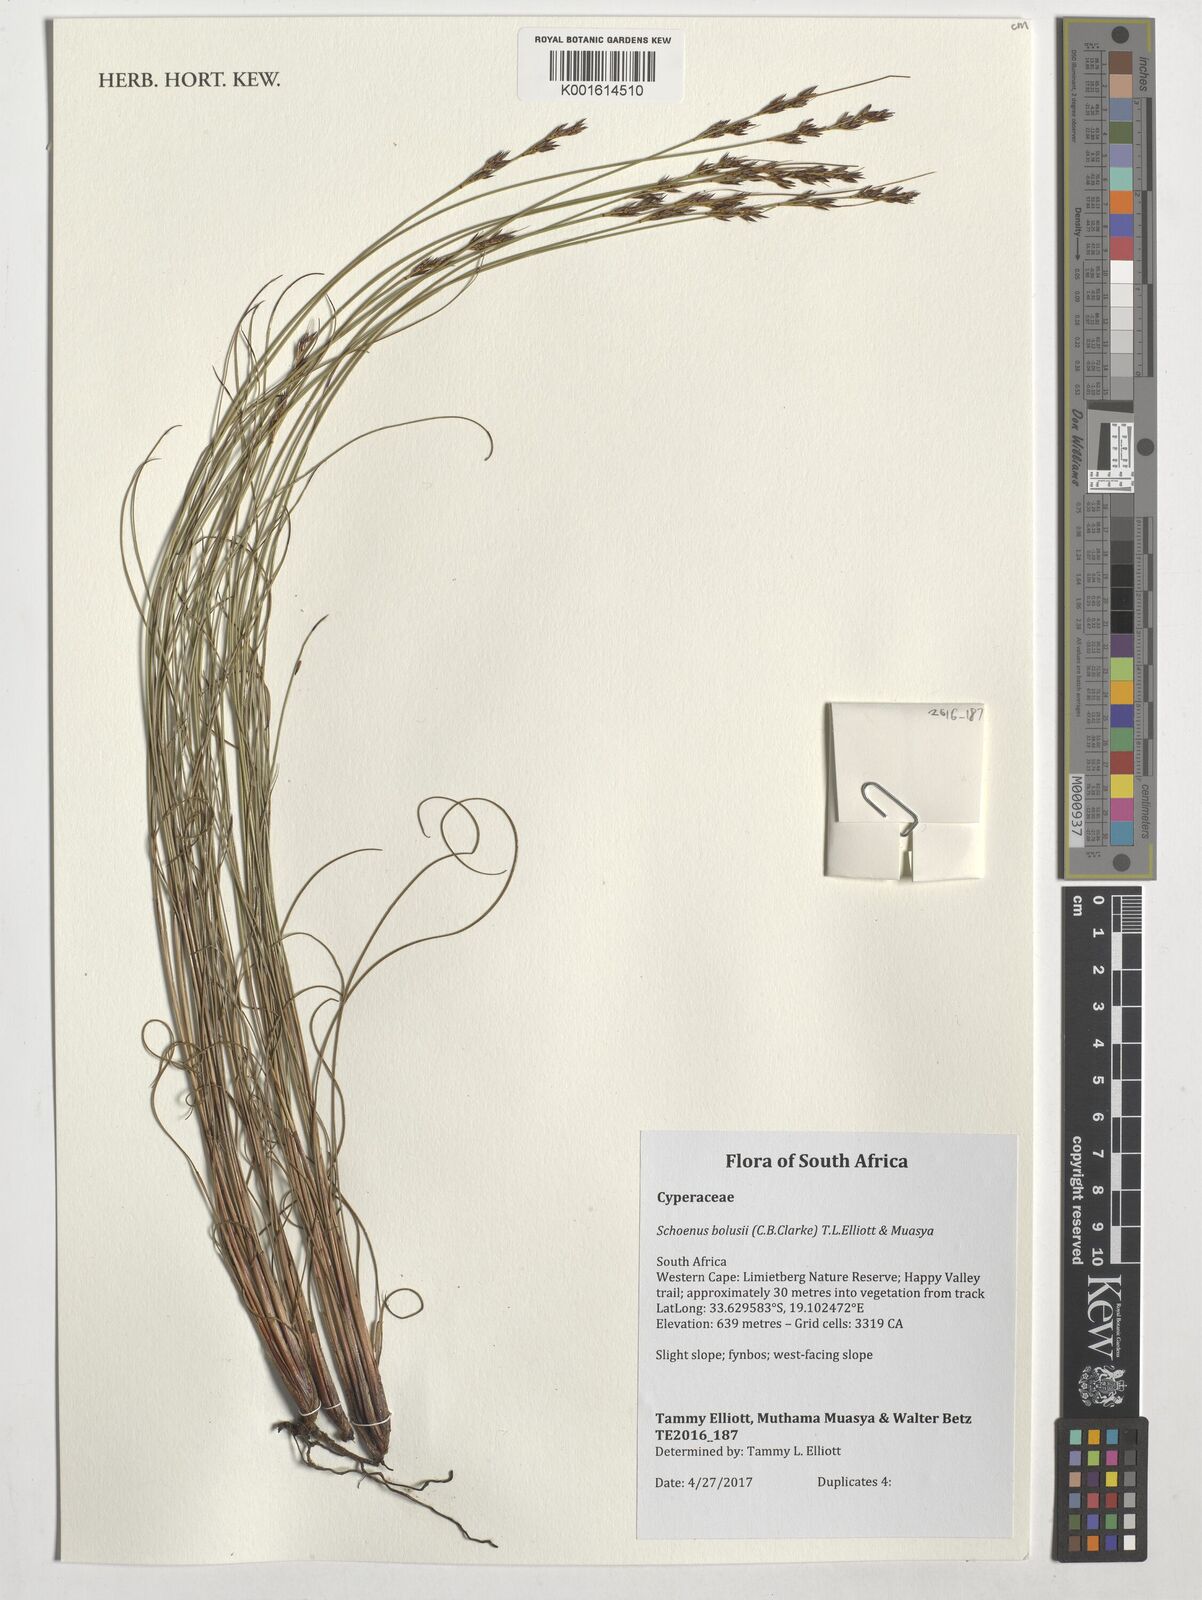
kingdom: Plantae
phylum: Tracheophyta
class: Liliopsida
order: Poales
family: Cyperaceae
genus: Schoenus
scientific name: Schoenus bolusii
